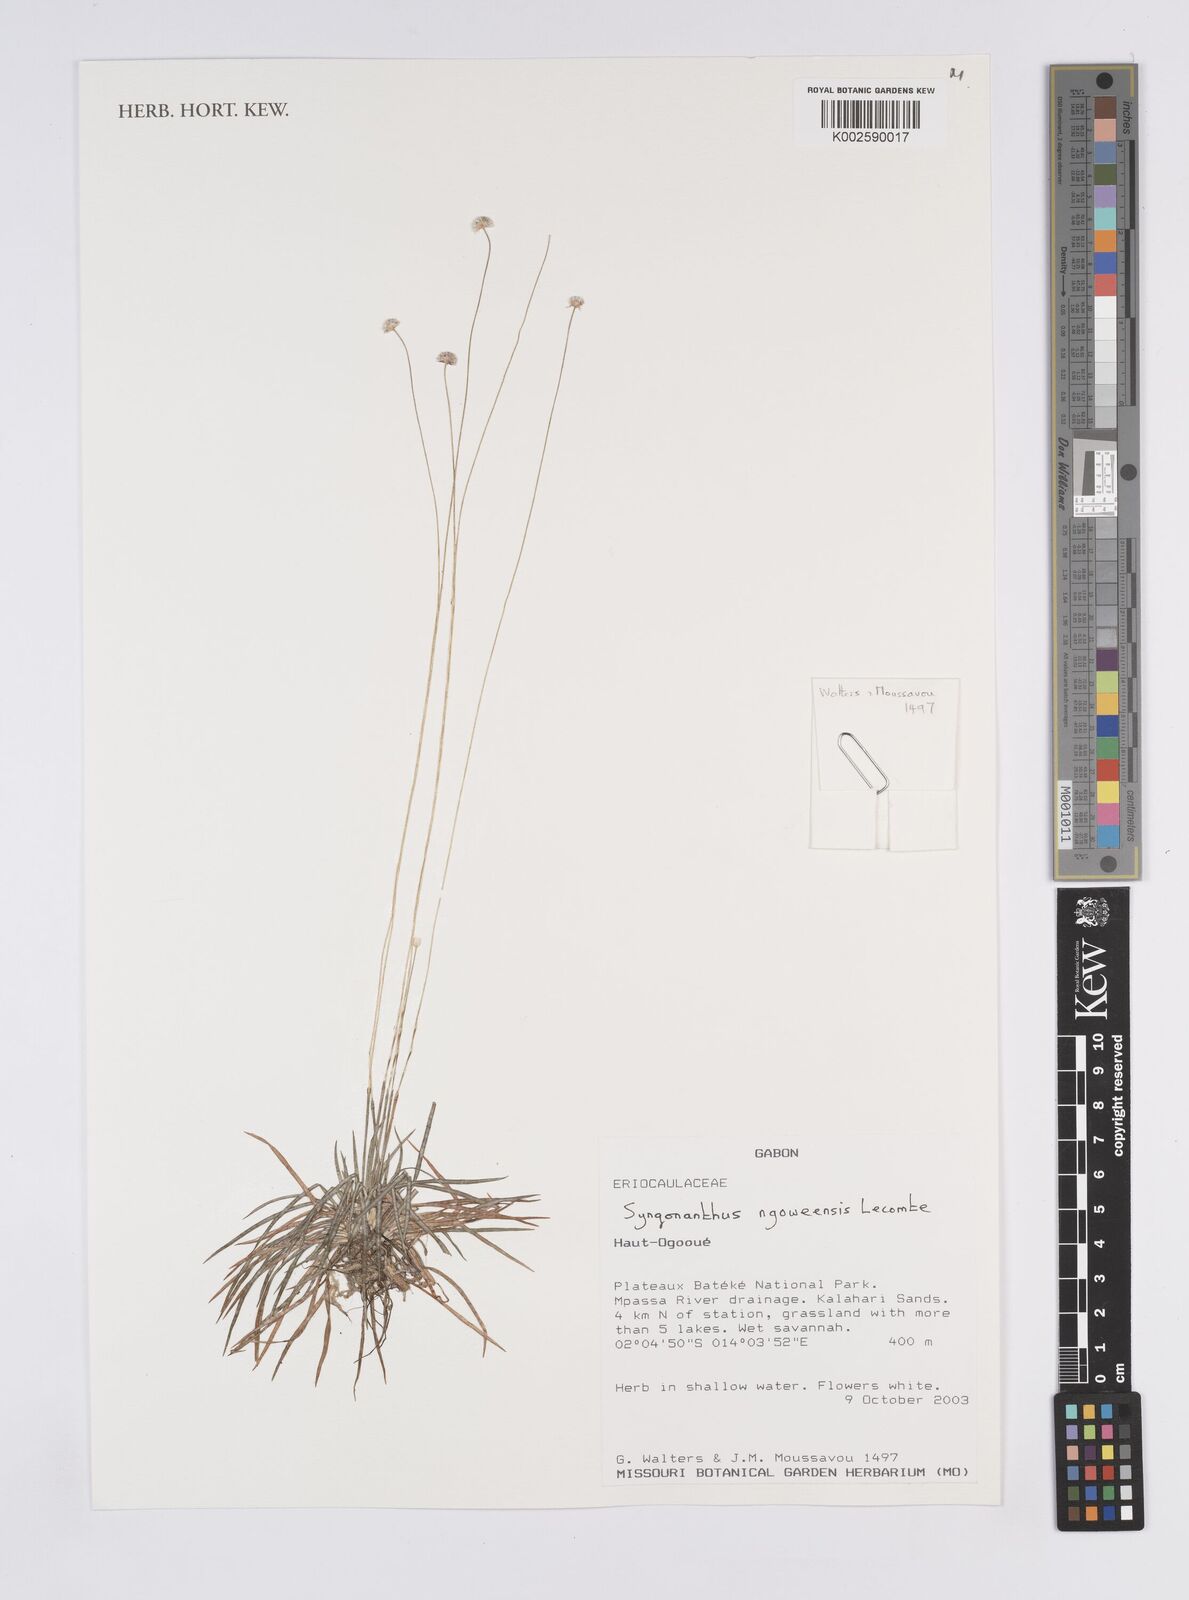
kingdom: Plantae
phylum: Tracheophyta
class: Liliopsida
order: Poales
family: Eriocaulaceae
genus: Syngonanthus
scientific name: Syngonanthus ngoweensis
